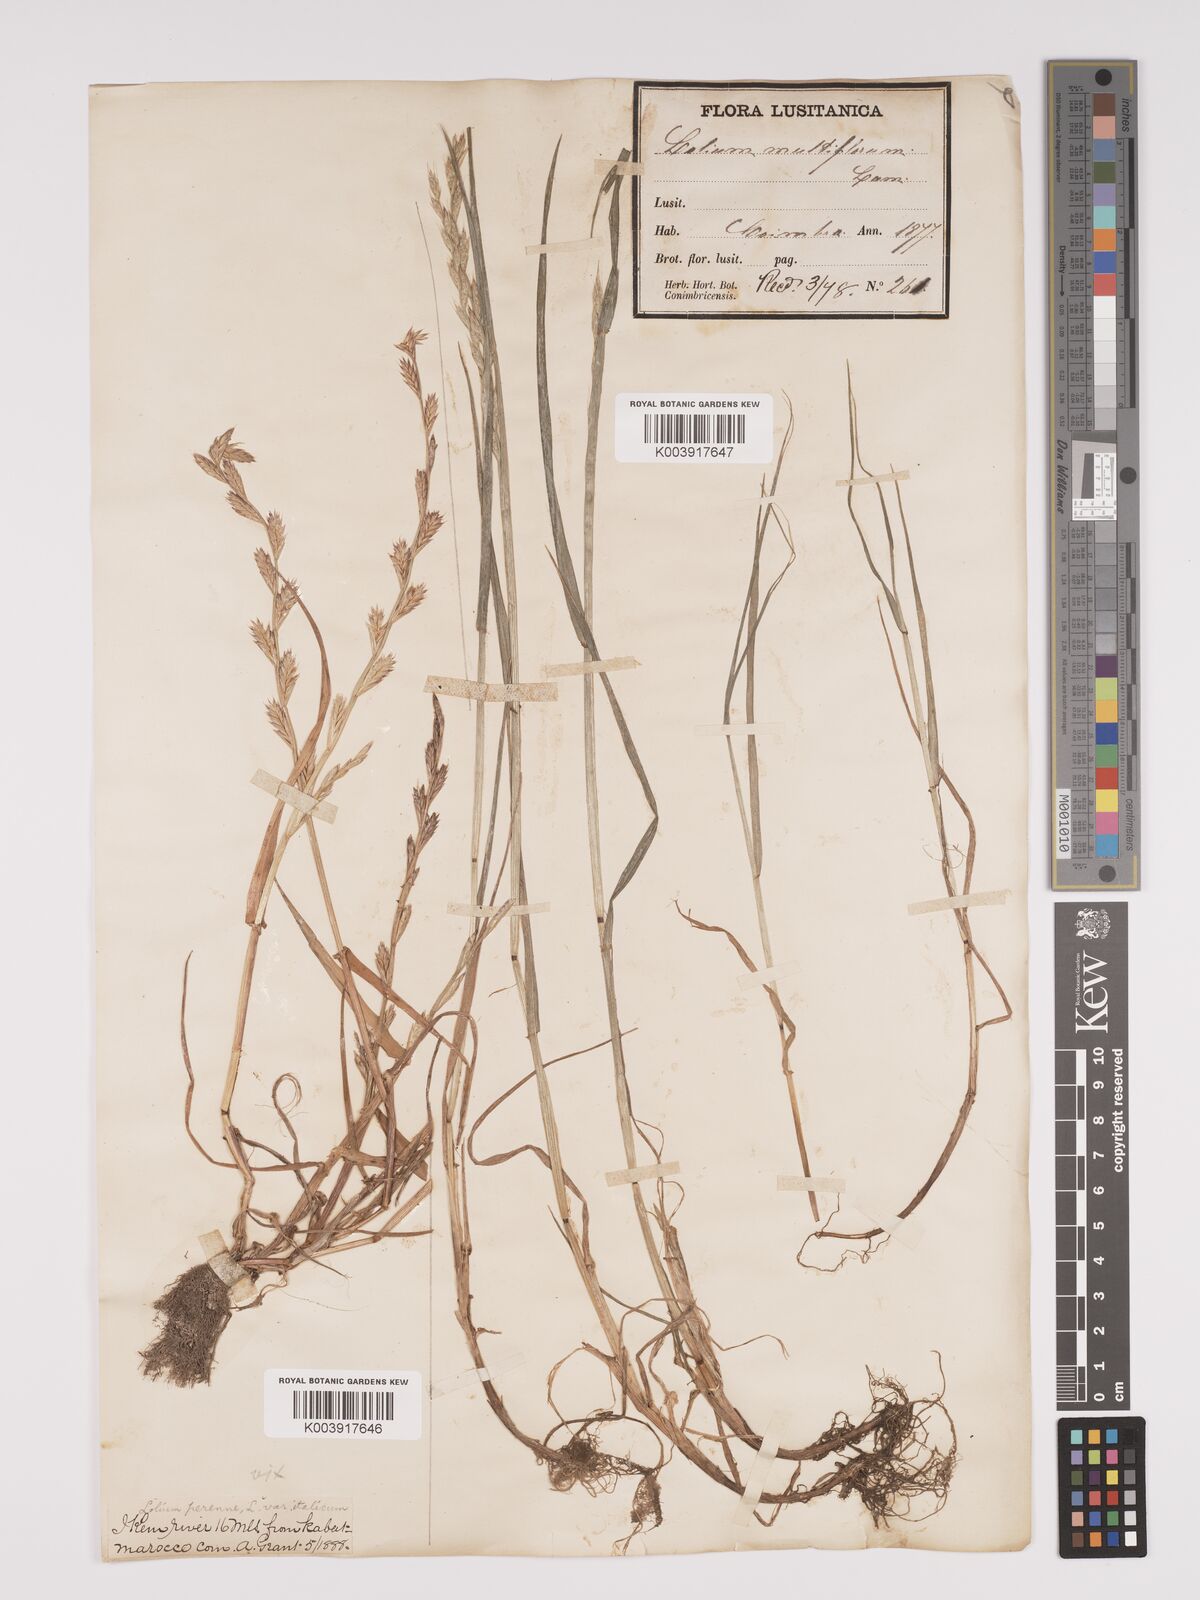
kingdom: Plantae
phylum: Tracheophyta
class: Liliopsida
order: Poales
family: Poaceae
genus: Lolium
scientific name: Lolium multiflorum
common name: Annual ryegrass
